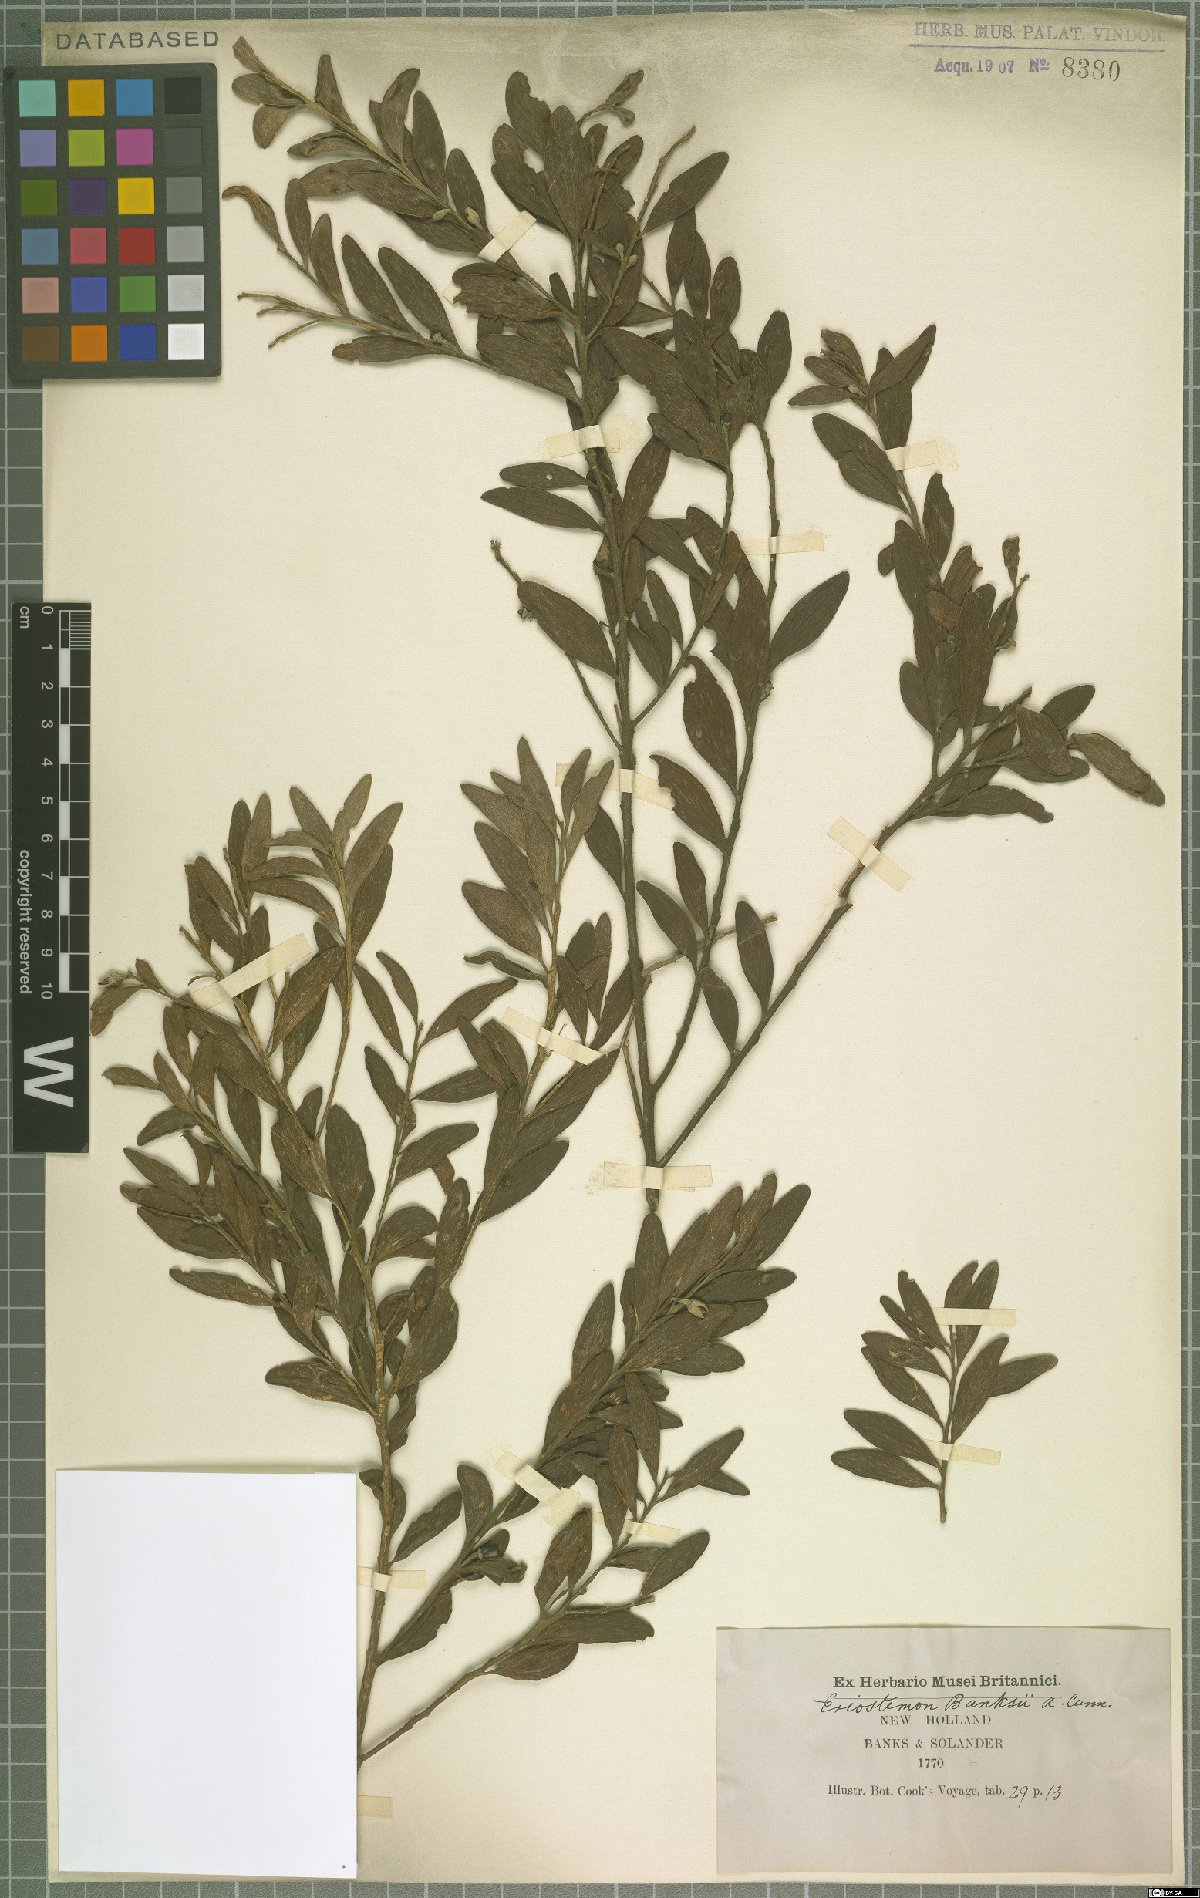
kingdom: Plantae
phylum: Tracheophyta
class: Magnoliopsida
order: Sapindales
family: Rutaceae
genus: Eriostemon
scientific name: Eriostemon banksii
